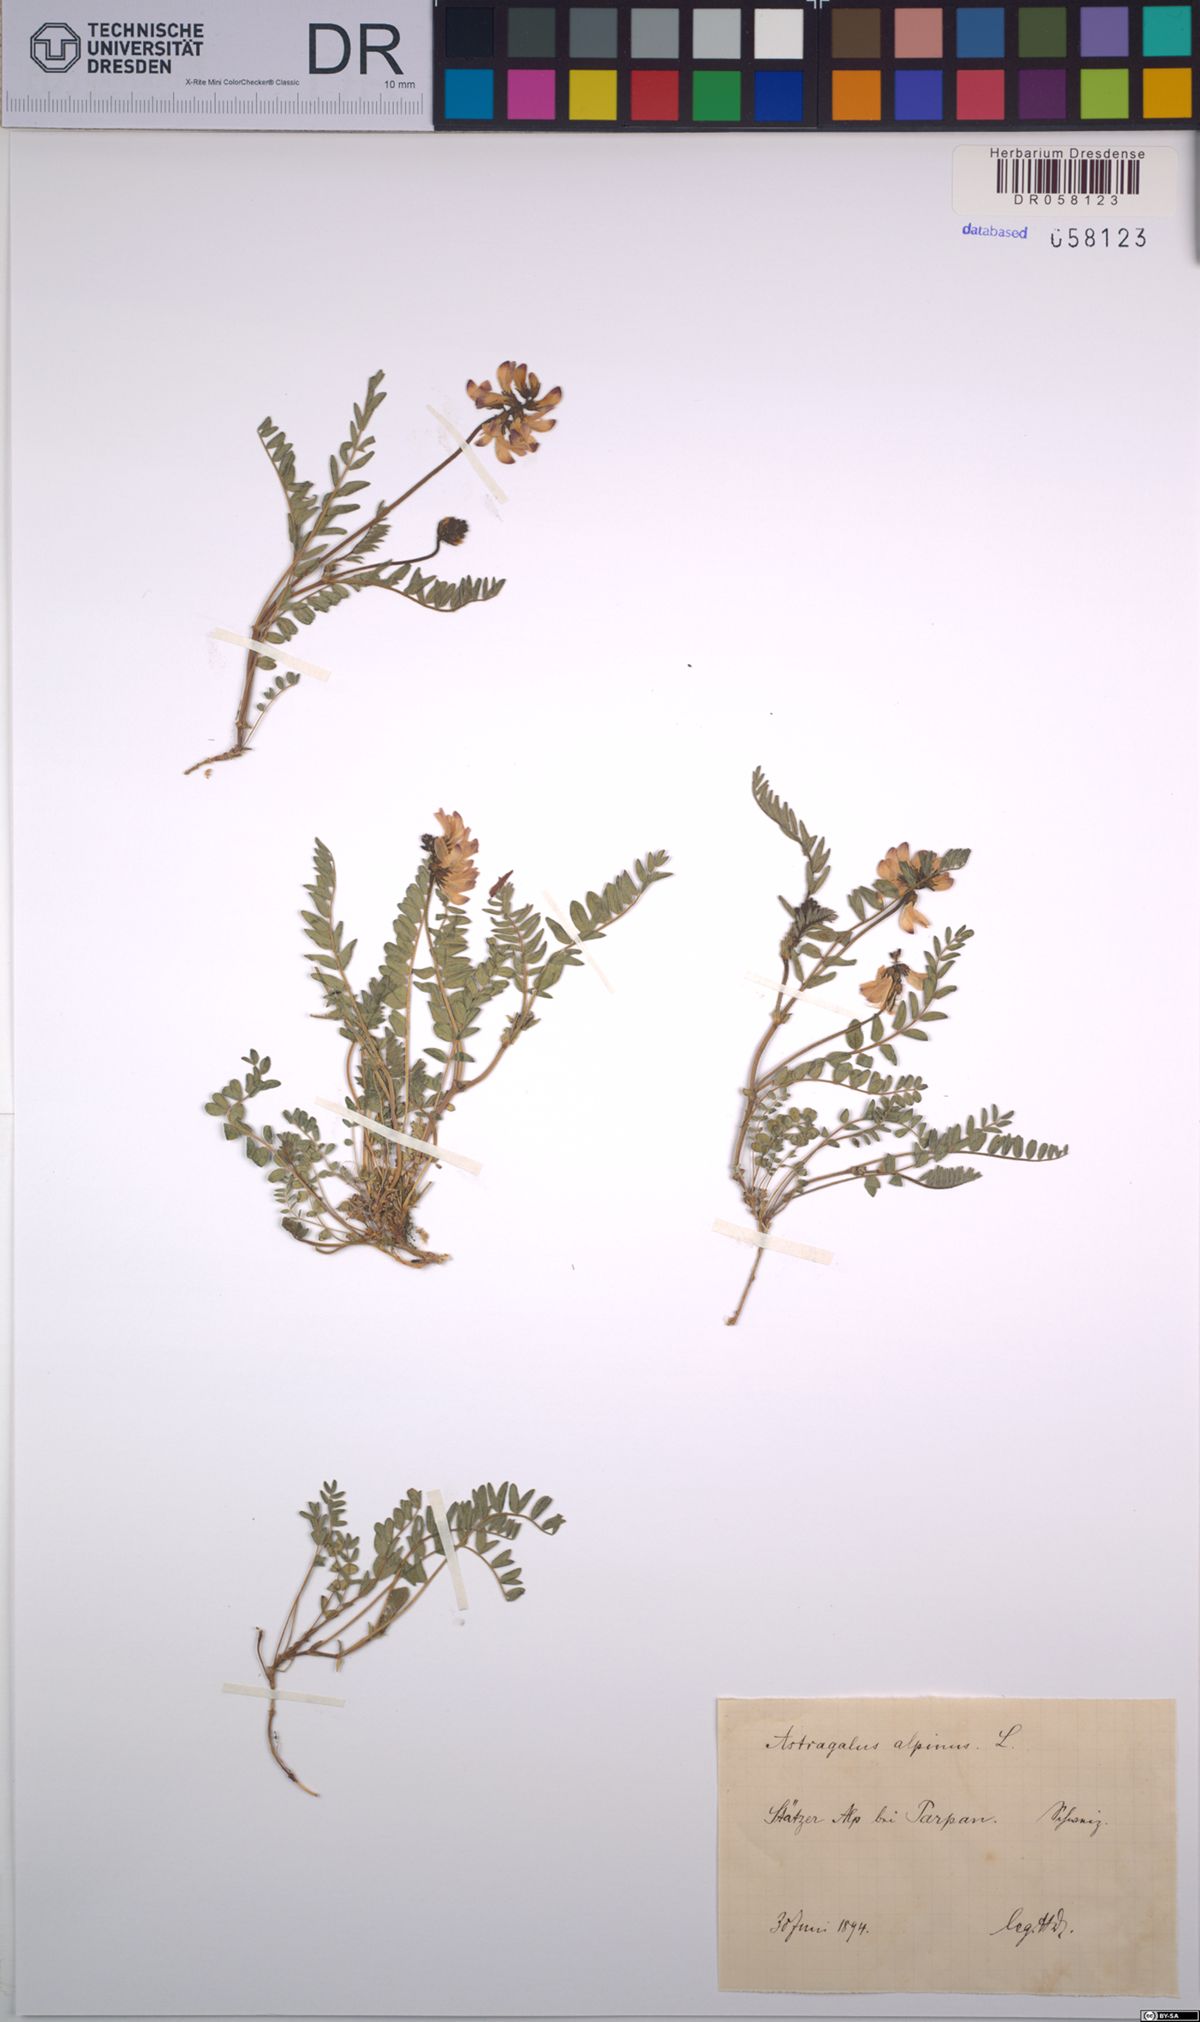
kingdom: Plantae
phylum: Tracheophyta
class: Magnoliopsida
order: Fabales
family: Fabaceae
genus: Astragalus
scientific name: Astragalus alpinus
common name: Alpine milk-vetch
